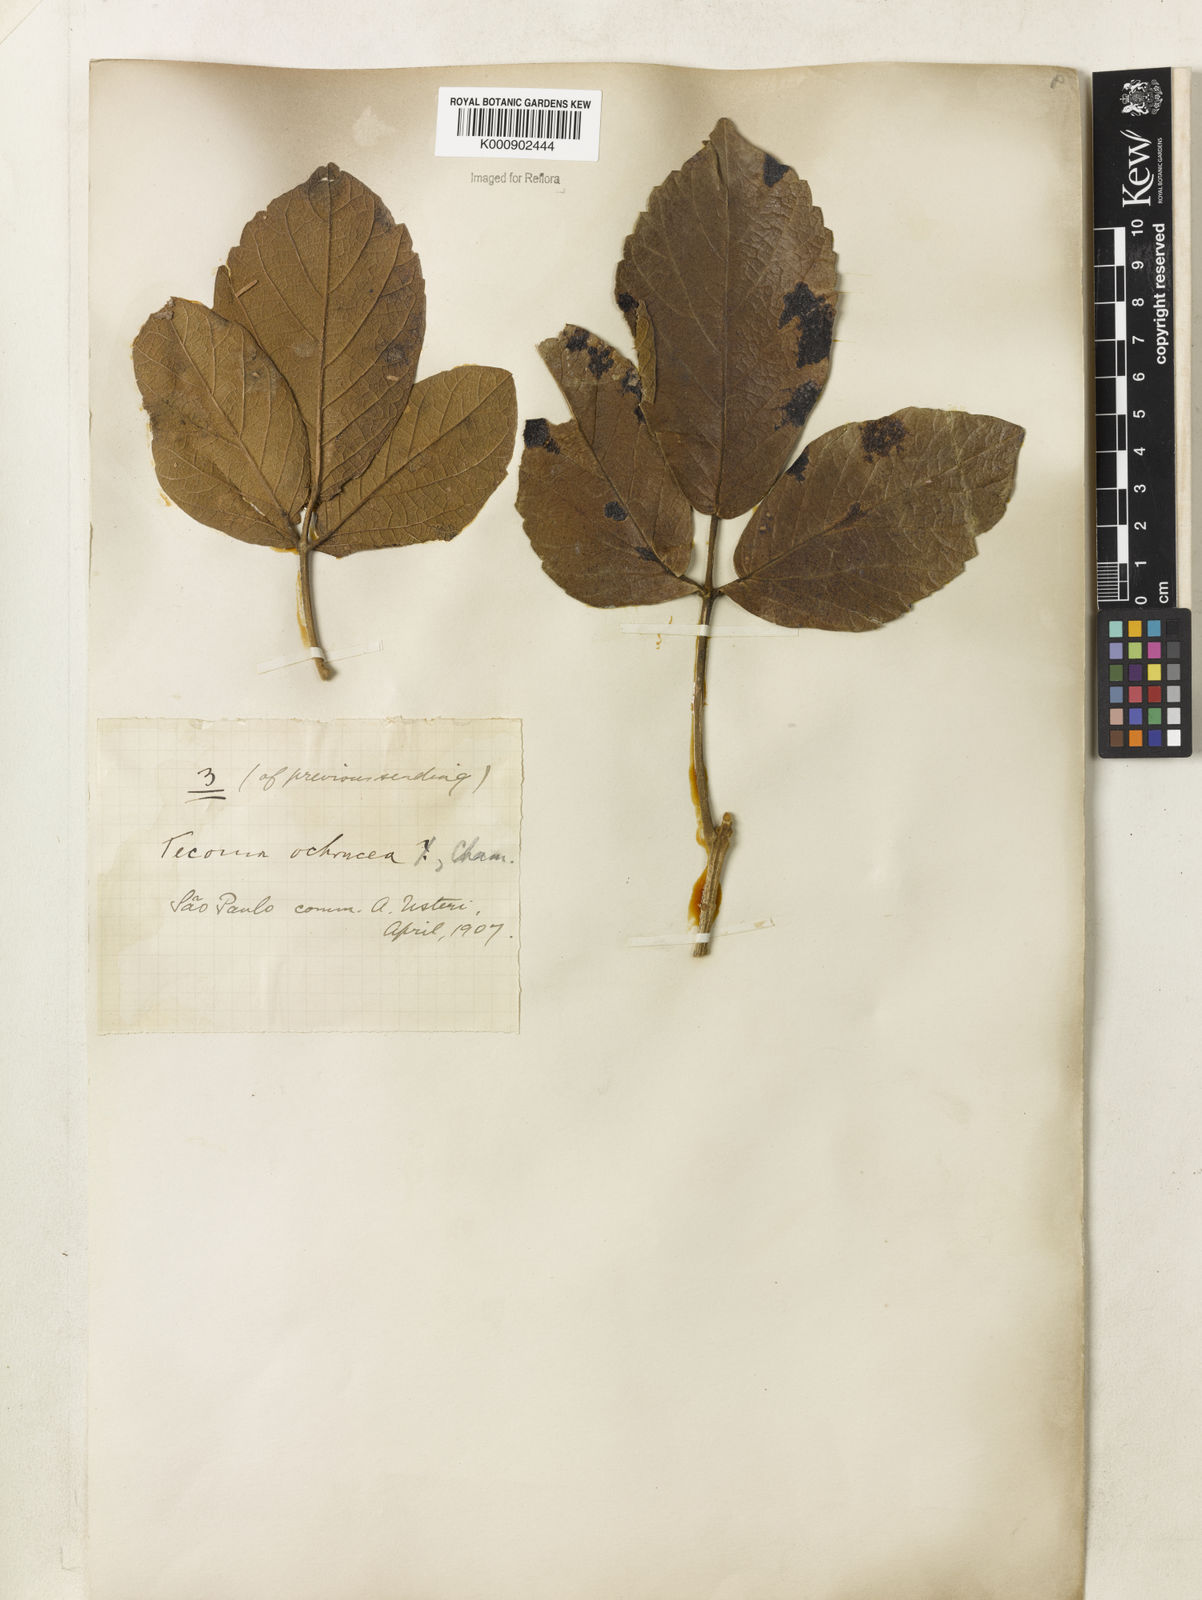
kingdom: Plantae
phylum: Tracheophyta
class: Magnoliopsida
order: Lamiales
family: Bignoniaceae
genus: Handroanthus
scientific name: Handroanthus ochraceus
